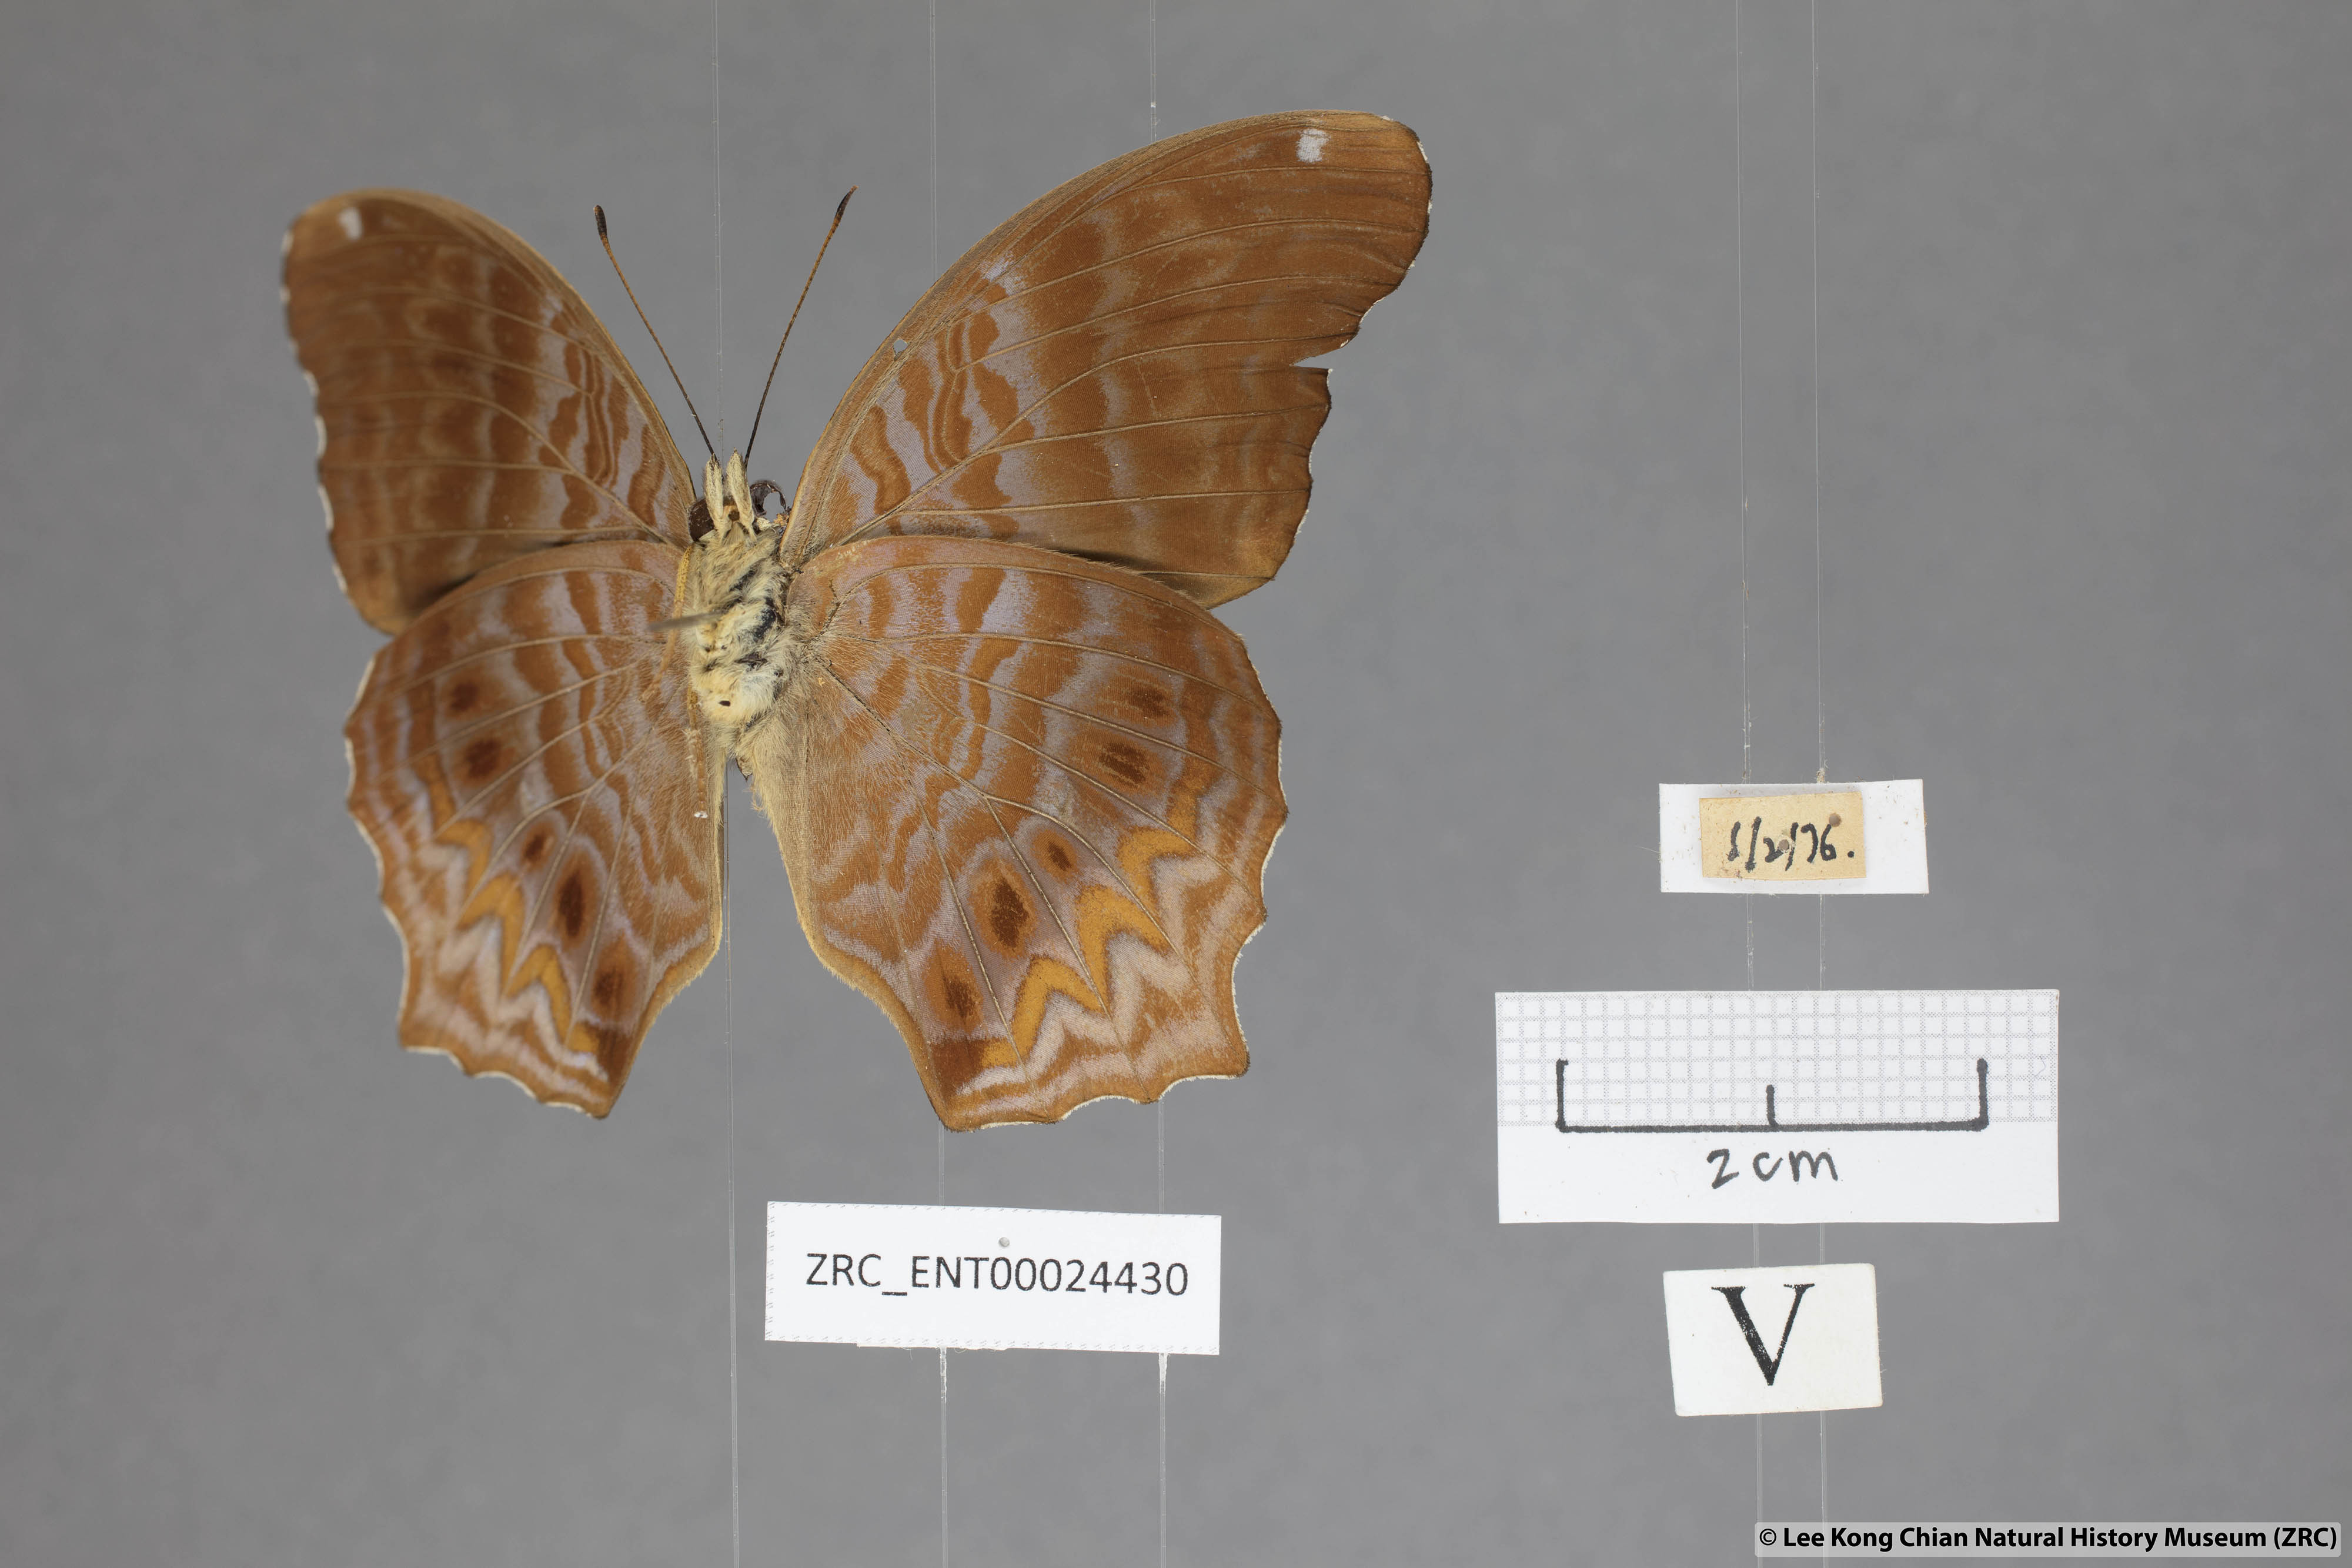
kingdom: Animalia
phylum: Arthropoda
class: Insecta
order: Lepidoptera
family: Nymphalidae
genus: Terinos
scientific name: Terinos clarissa
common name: Malayan assyrian
